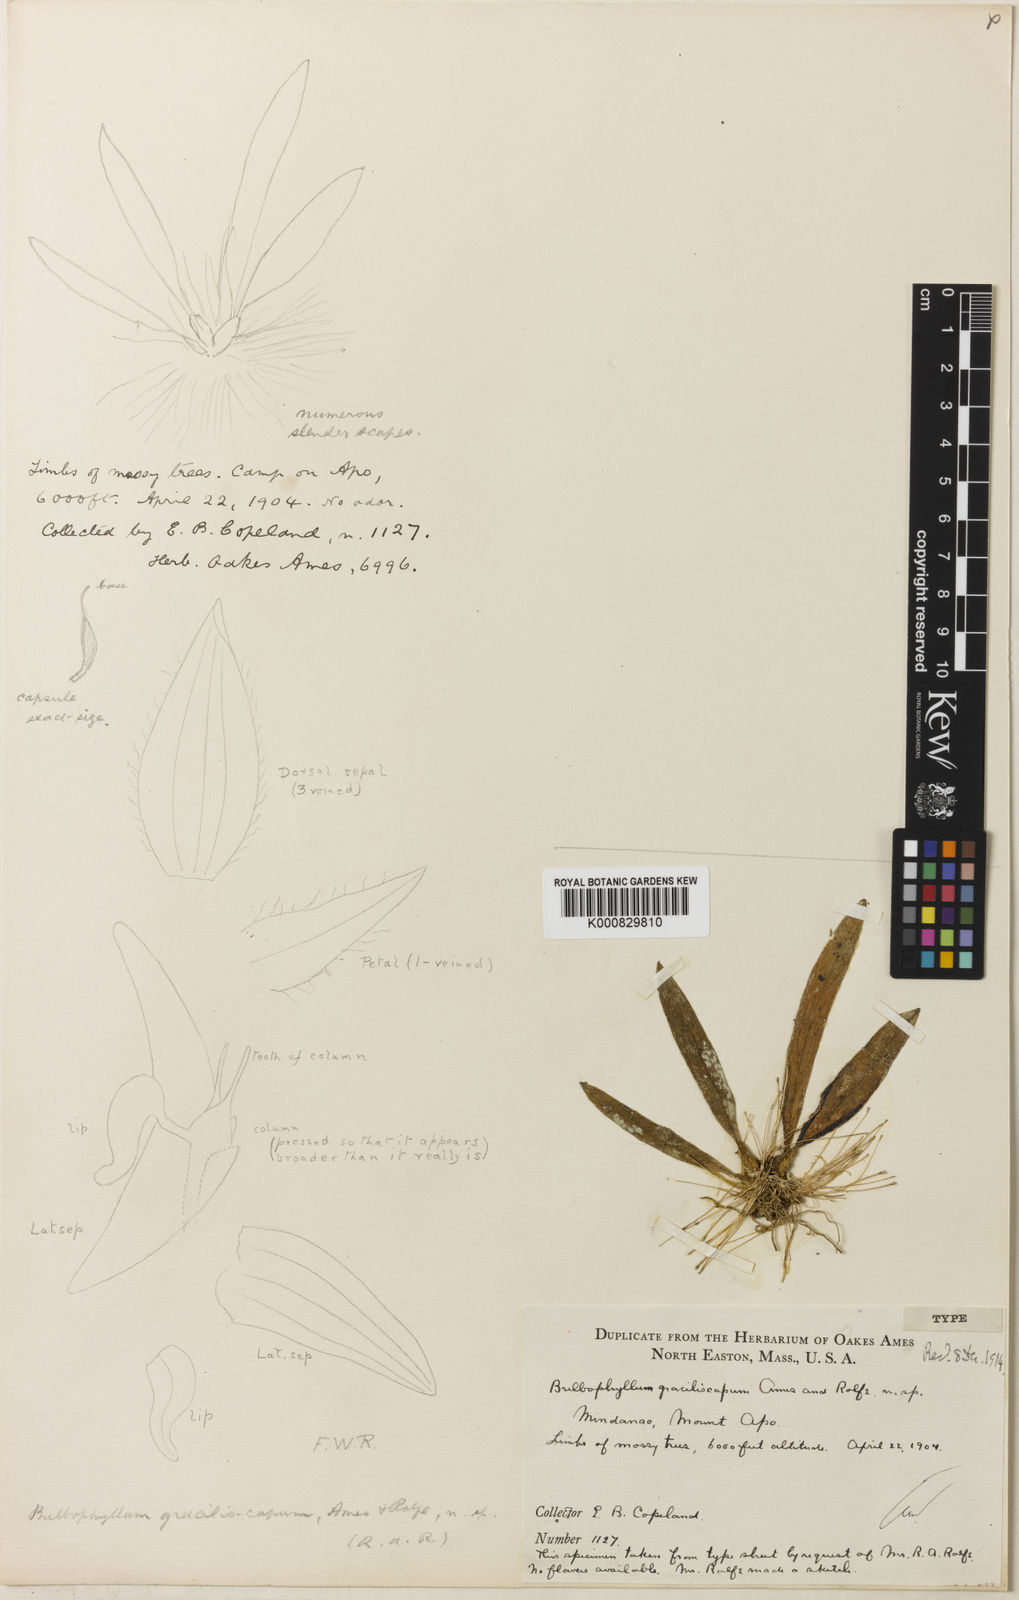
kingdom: Plantae
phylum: Tracheophyta
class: Liliopsida
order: Asparagales
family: Orchidaceae
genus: Bulbophyllum
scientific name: Bulbophyllum apoense
